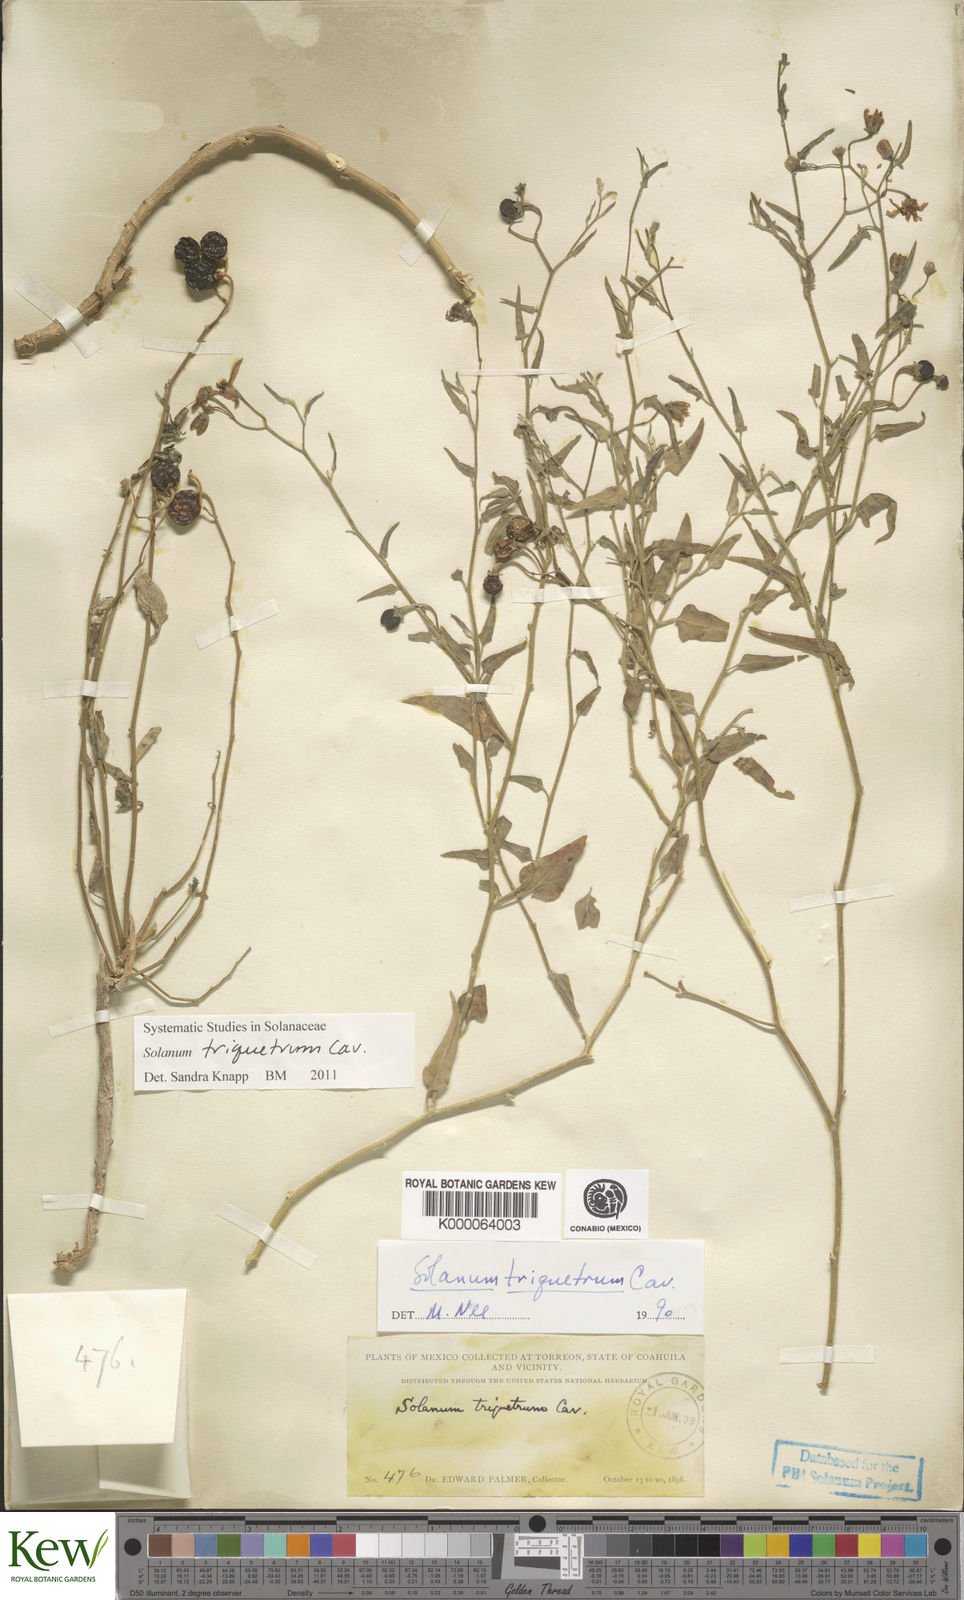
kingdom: Plantae
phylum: Tracheophyta
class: Magnoliopsida
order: Solanales
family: Solanaceae
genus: Solanum
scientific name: Solanum triquetrum
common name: Texas nightshade
